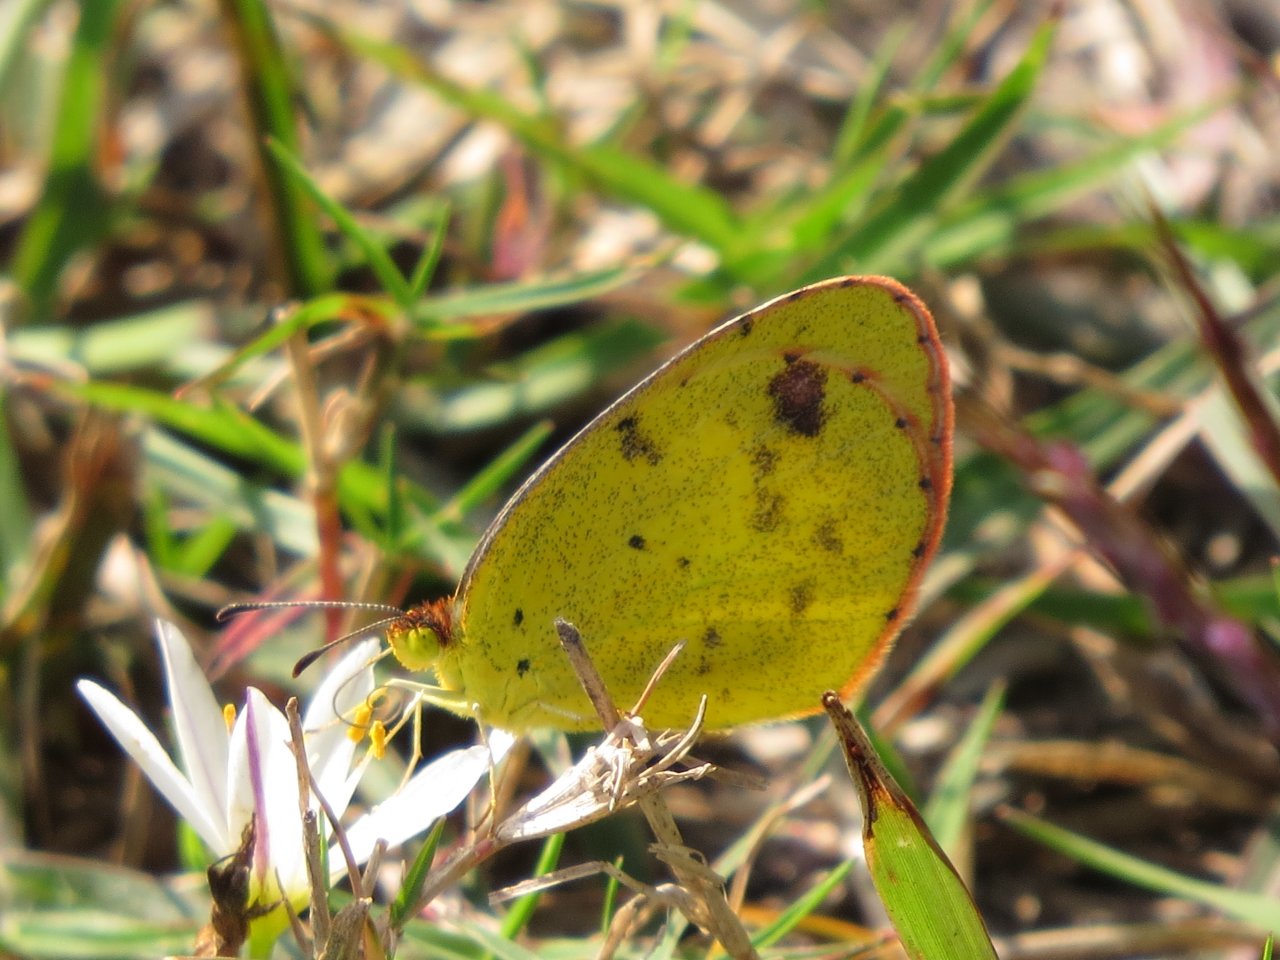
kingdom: Animalia
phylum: Arthropoda
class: Insecta
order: Lepidoptera
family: Pieridae
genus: Pyrisitia
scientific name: Pyrisitia lisa
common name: Little Yellow
